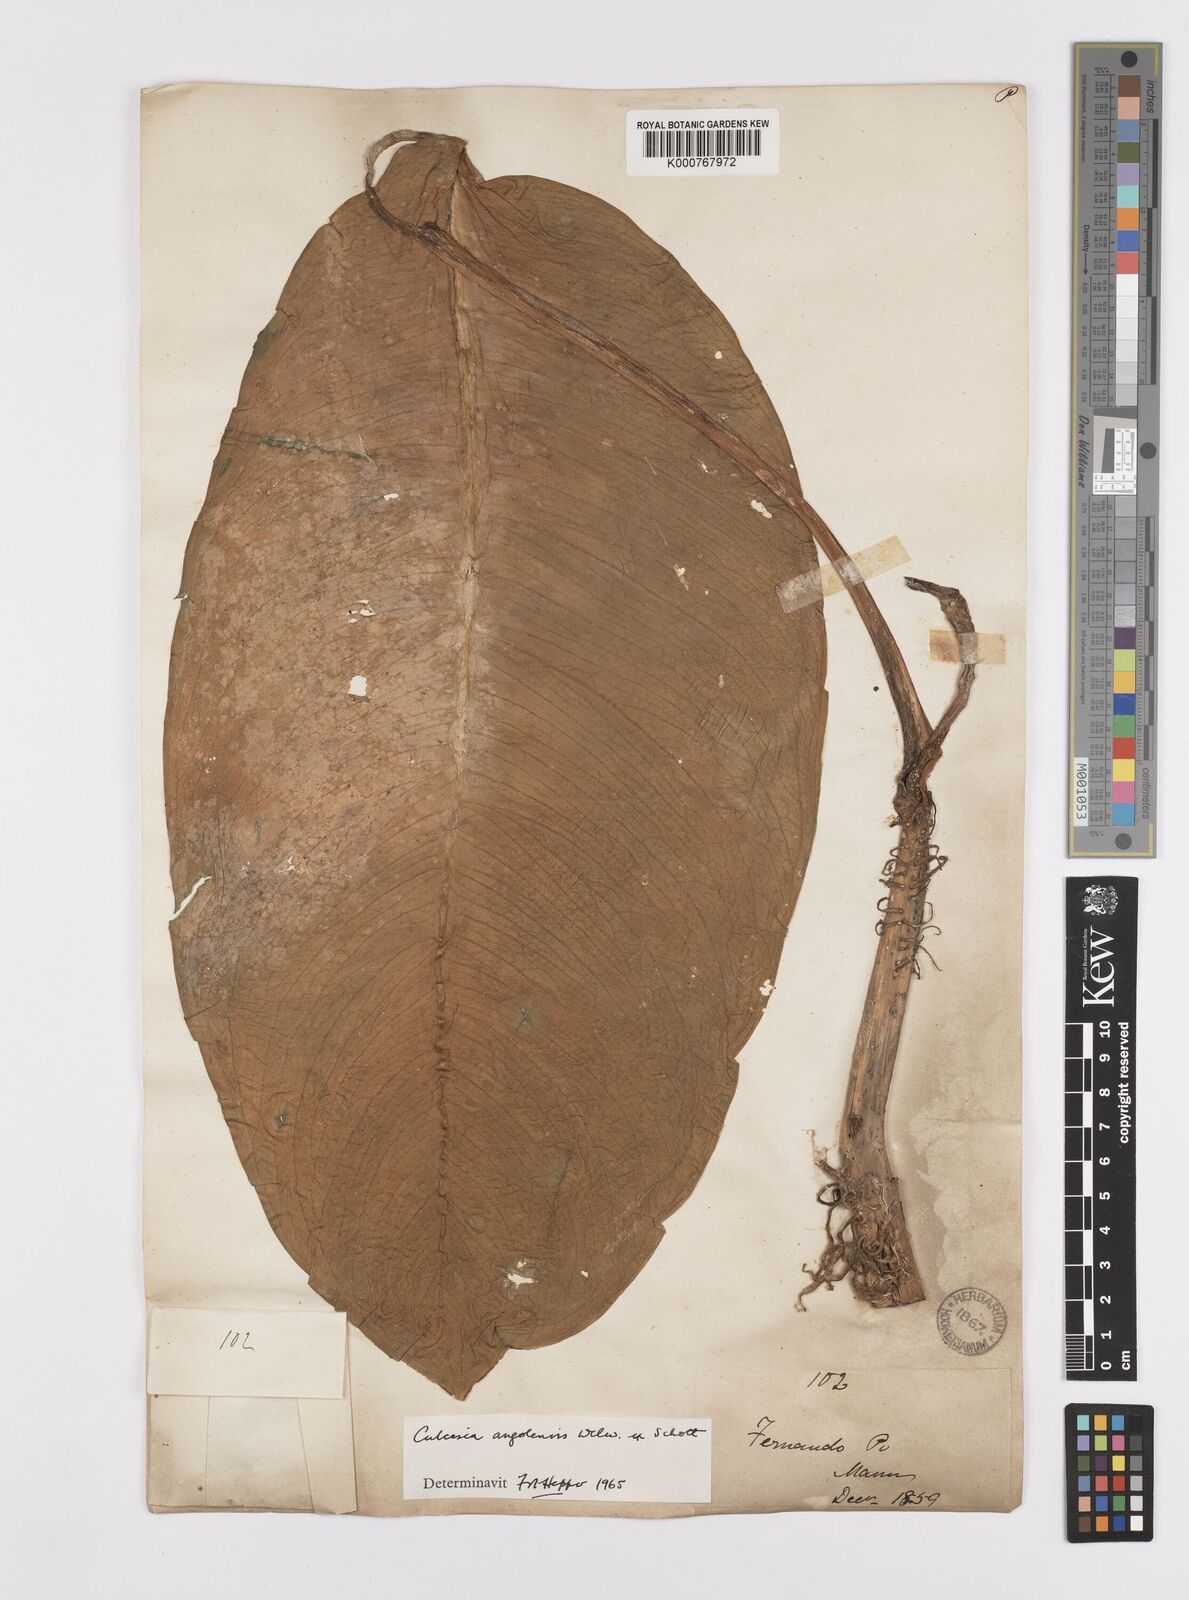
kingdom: Plantae
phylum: Tracheophyta
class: Liliopsida
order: Alismatales
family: Araceae
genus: Culcasia
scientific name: Culcasia angolensis
